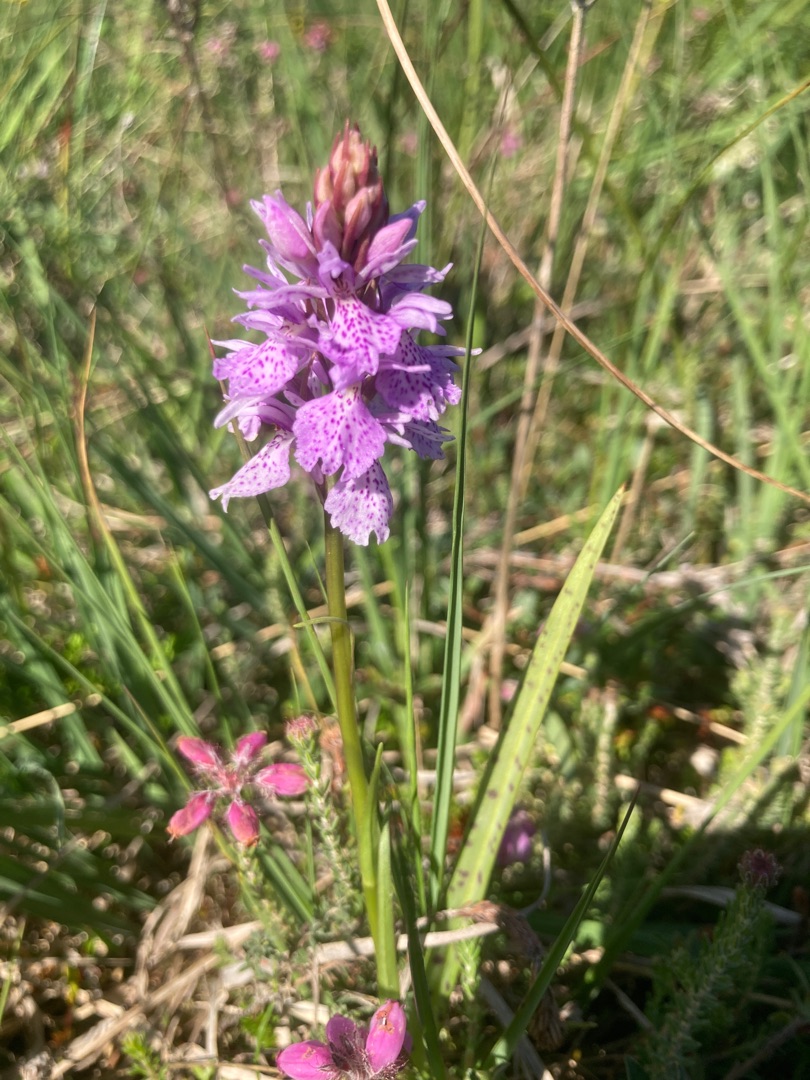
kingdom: Plantae
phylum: Tracheophyta
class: Liliopsida
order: Asparagales
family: Orchidaceae
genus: Dactylorhiza
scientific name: Dactylorhiza maculata
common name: Plettet gøgeurt
